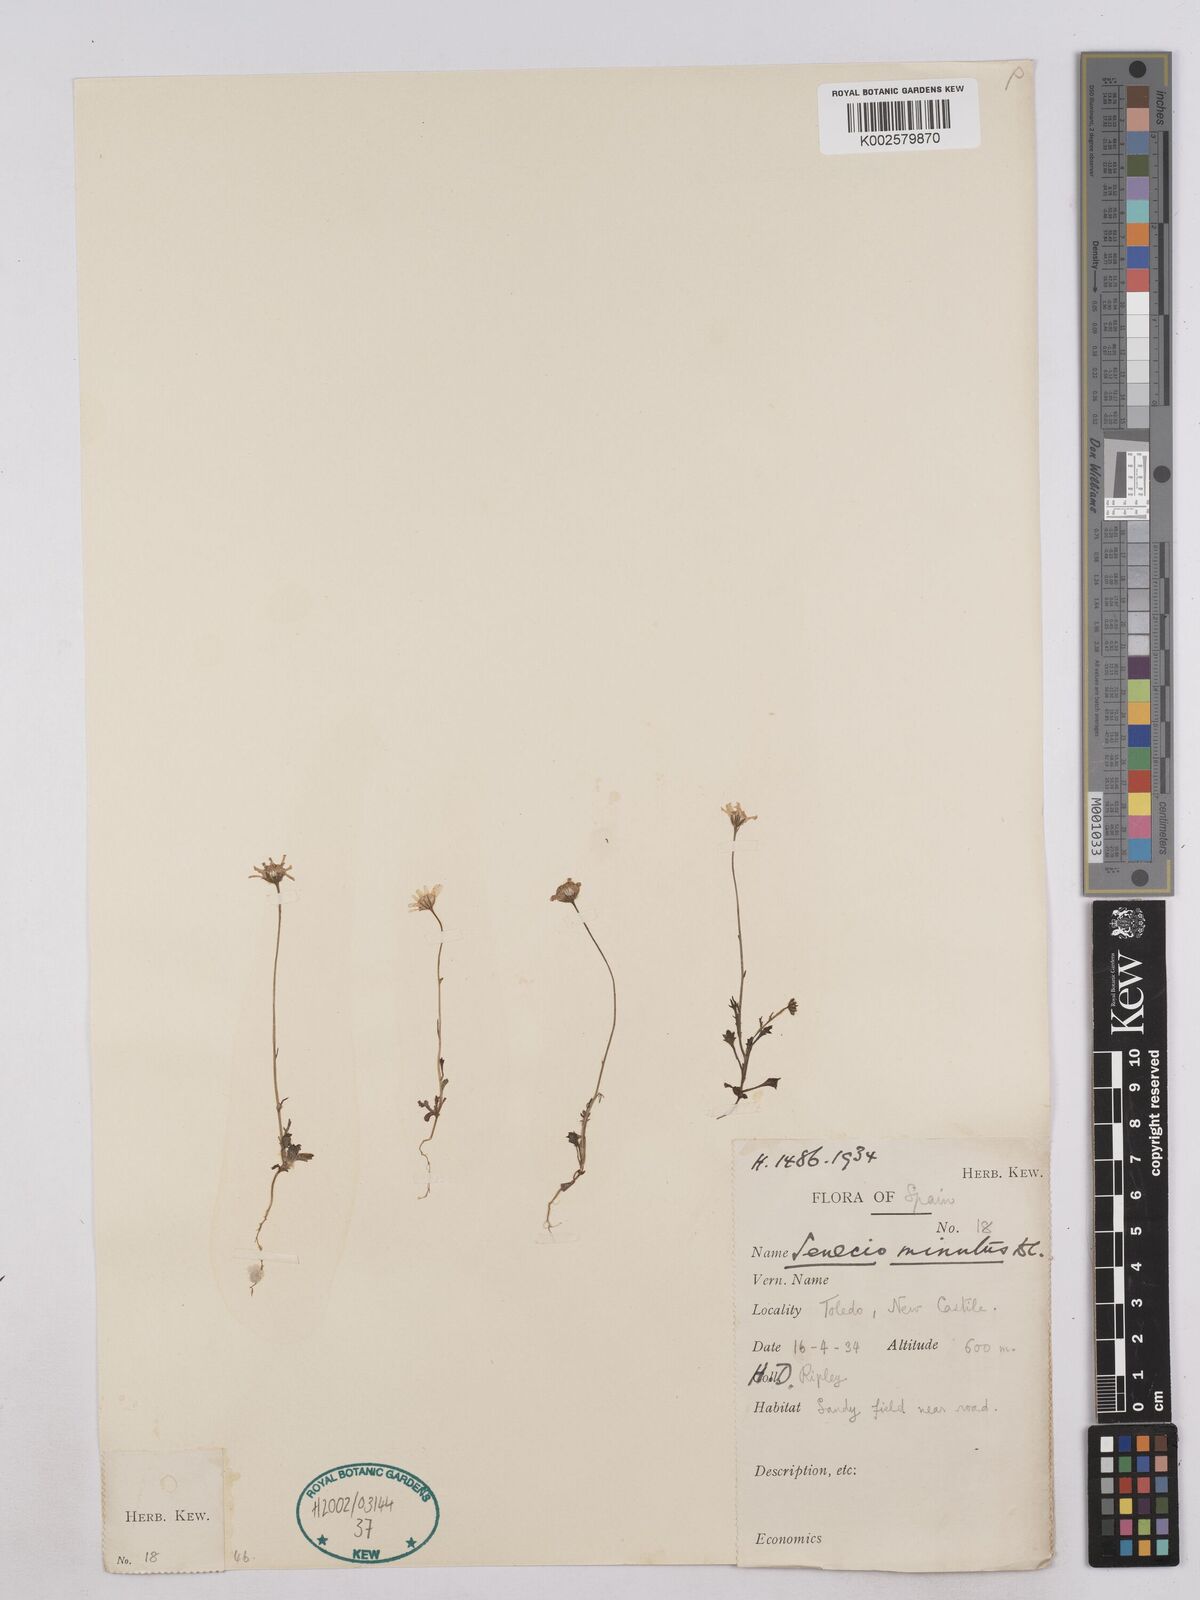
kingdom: Plantae
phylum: Tracheophyta
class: Magnoliopsida
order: Asterales
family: Asteraceae
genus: Jacobaea
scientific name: Jacobaea minuta
